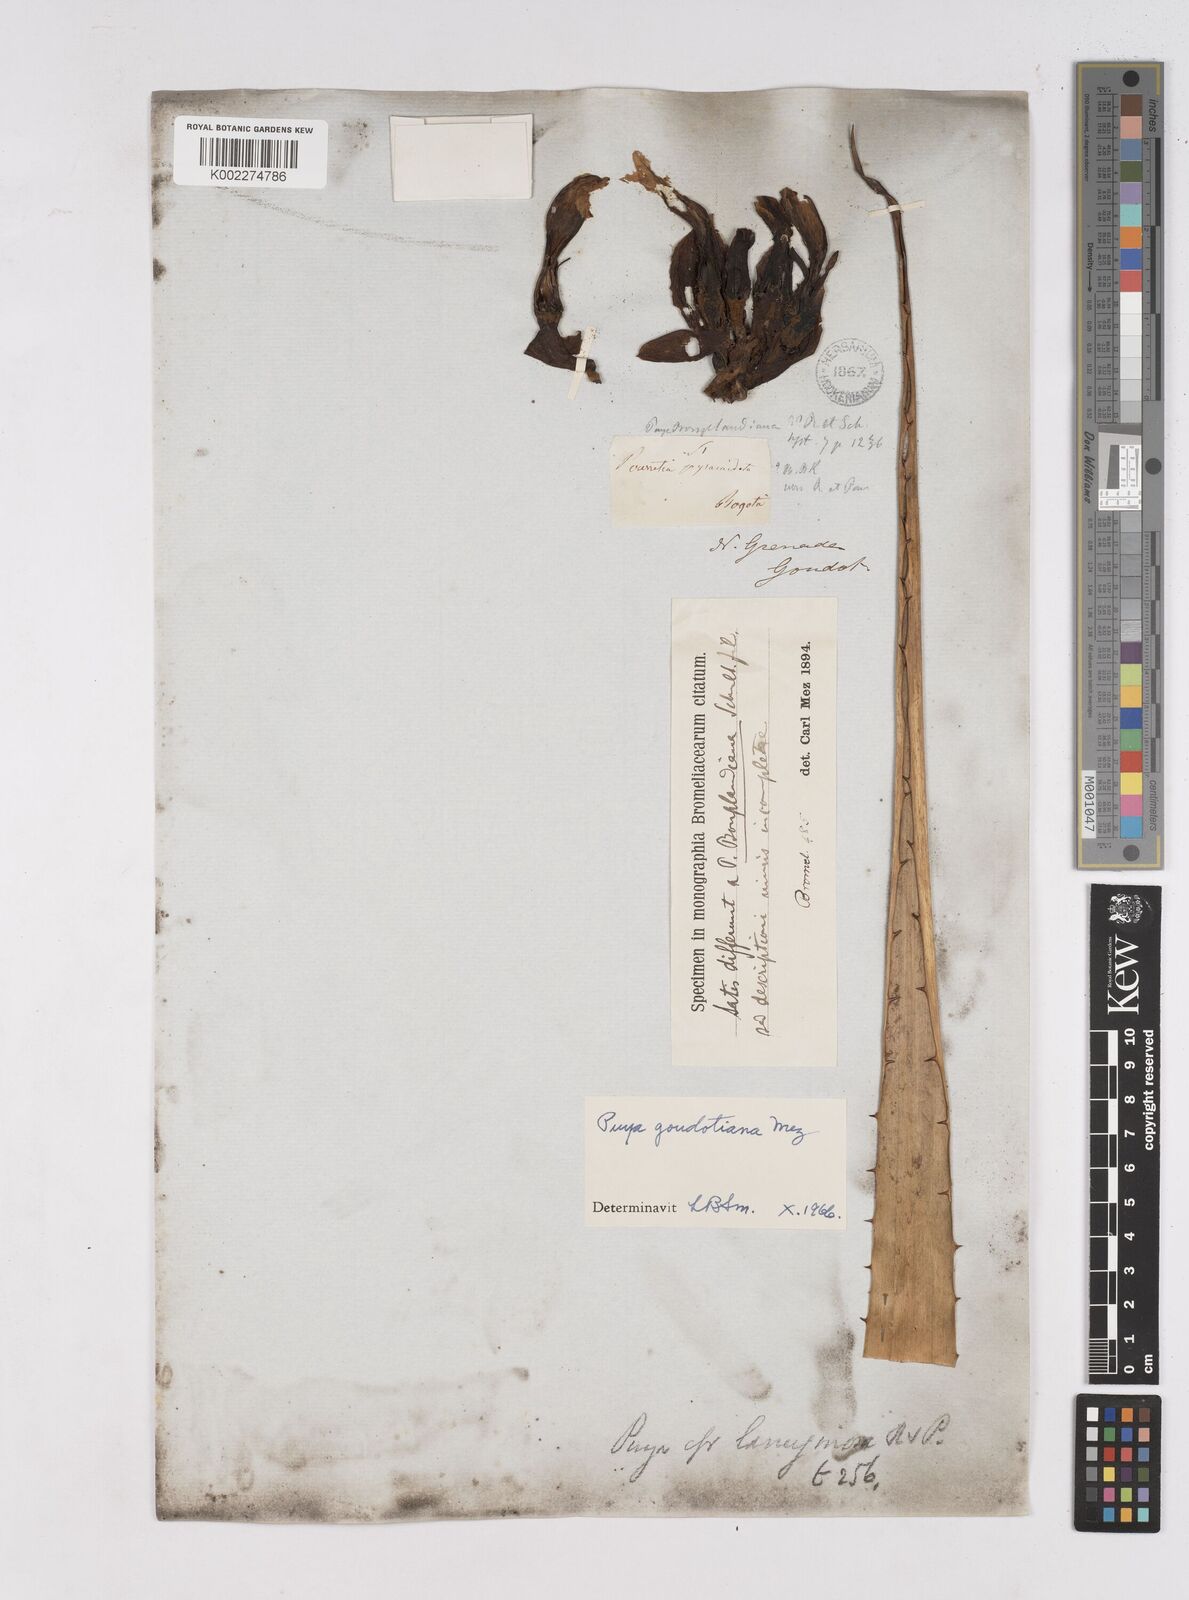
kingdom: Plantae
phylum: Tracheophyta
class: Liliopsida
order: Poales
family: Bromeliaceae
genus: Puya
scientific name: Puya goudotiana
